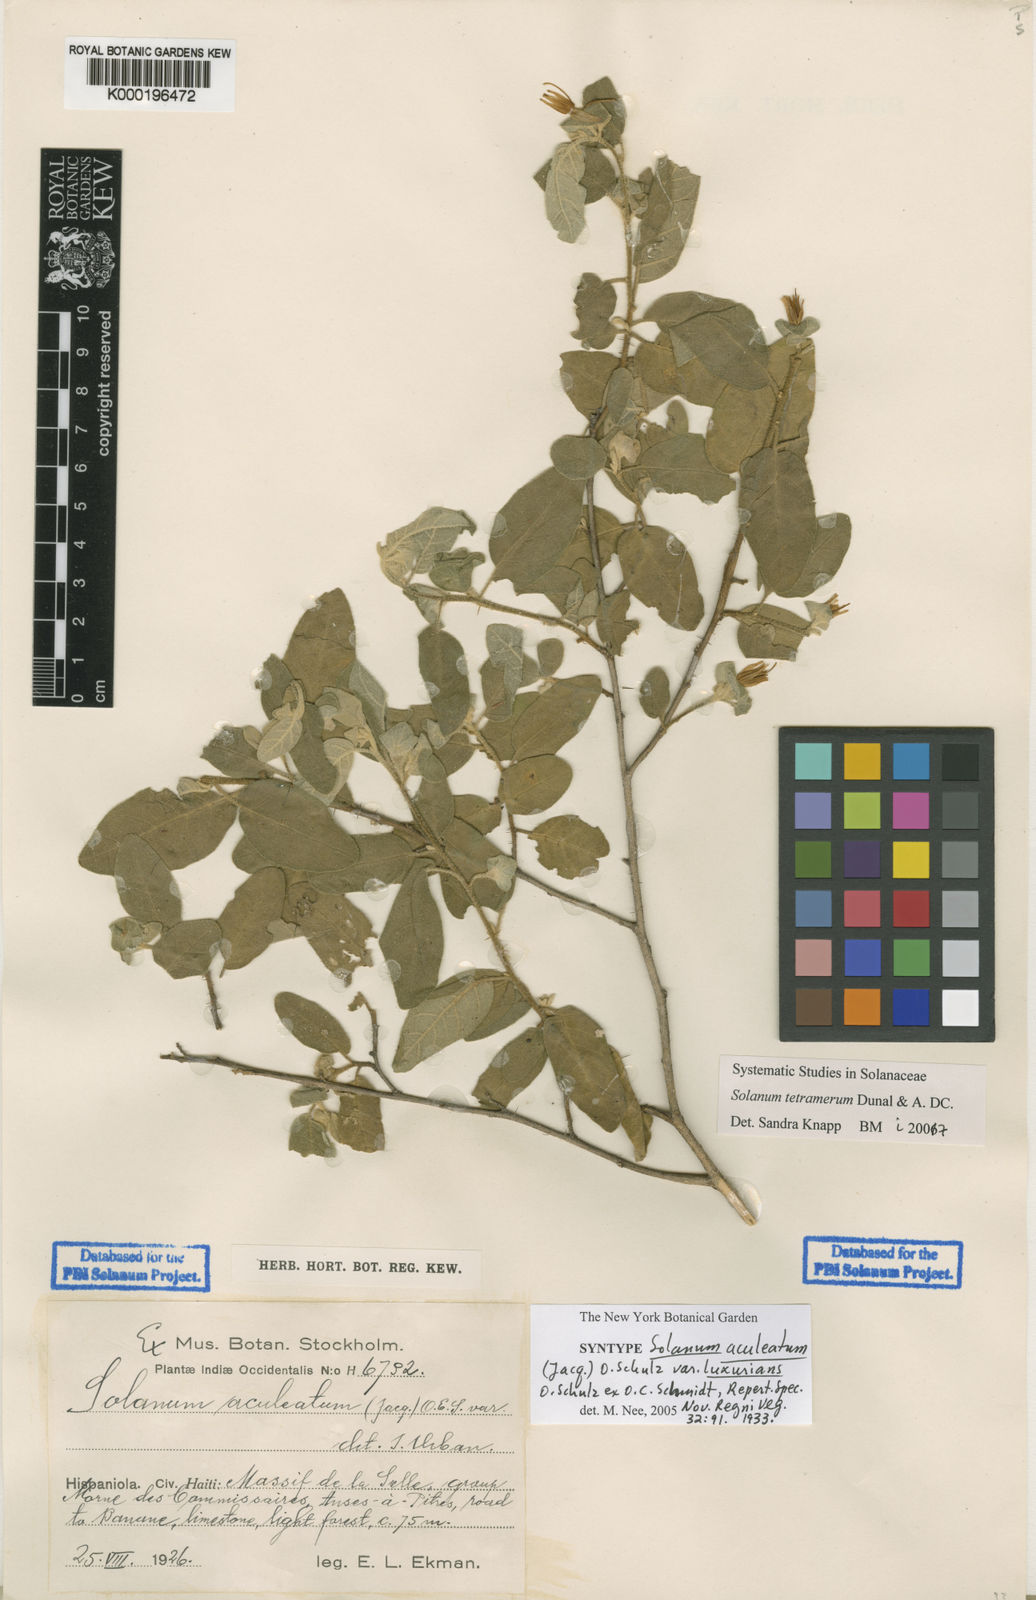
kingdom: Plantae
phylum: Tracheophyta
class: Magnoliopsida
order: Solanales
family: Solanaceae
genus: Solanum
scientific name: Solanum tetramerum
